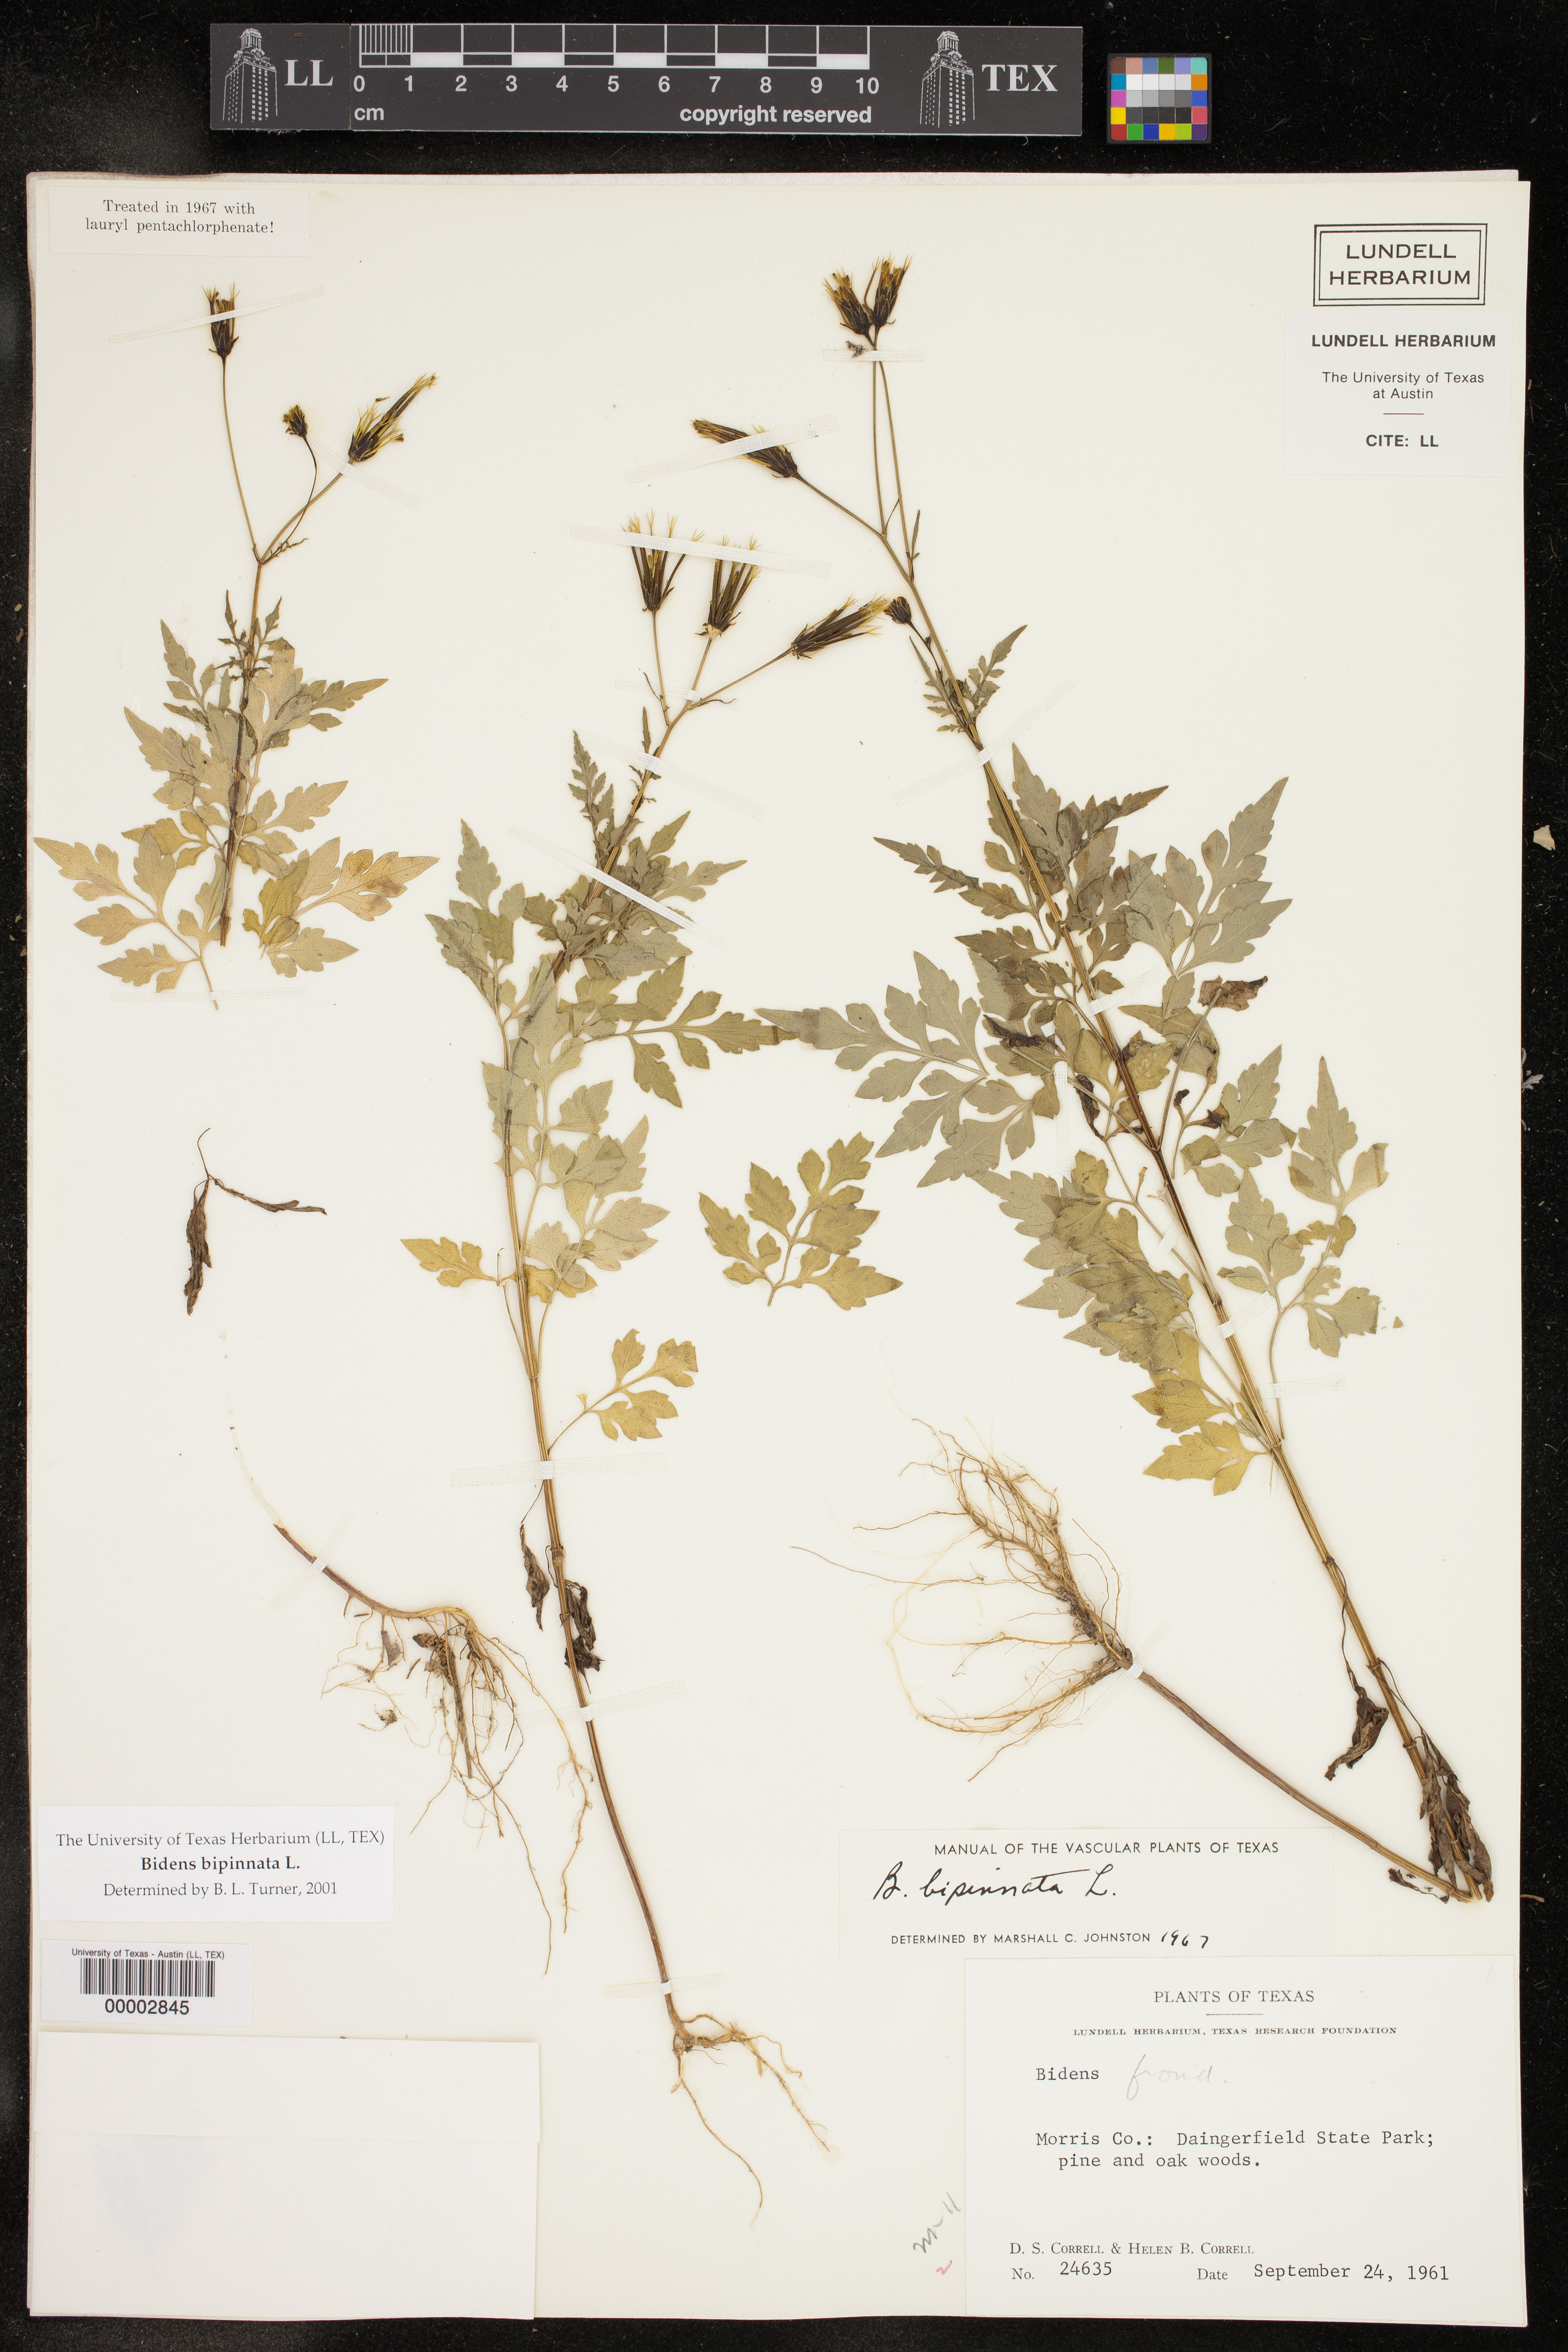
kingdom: Plantae
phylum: Tracheophyta
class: Magnoliopsida
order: Asterales
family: Asteraceae
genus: Bidens
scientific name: Bidens bipinnata
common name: Spanish-needles
